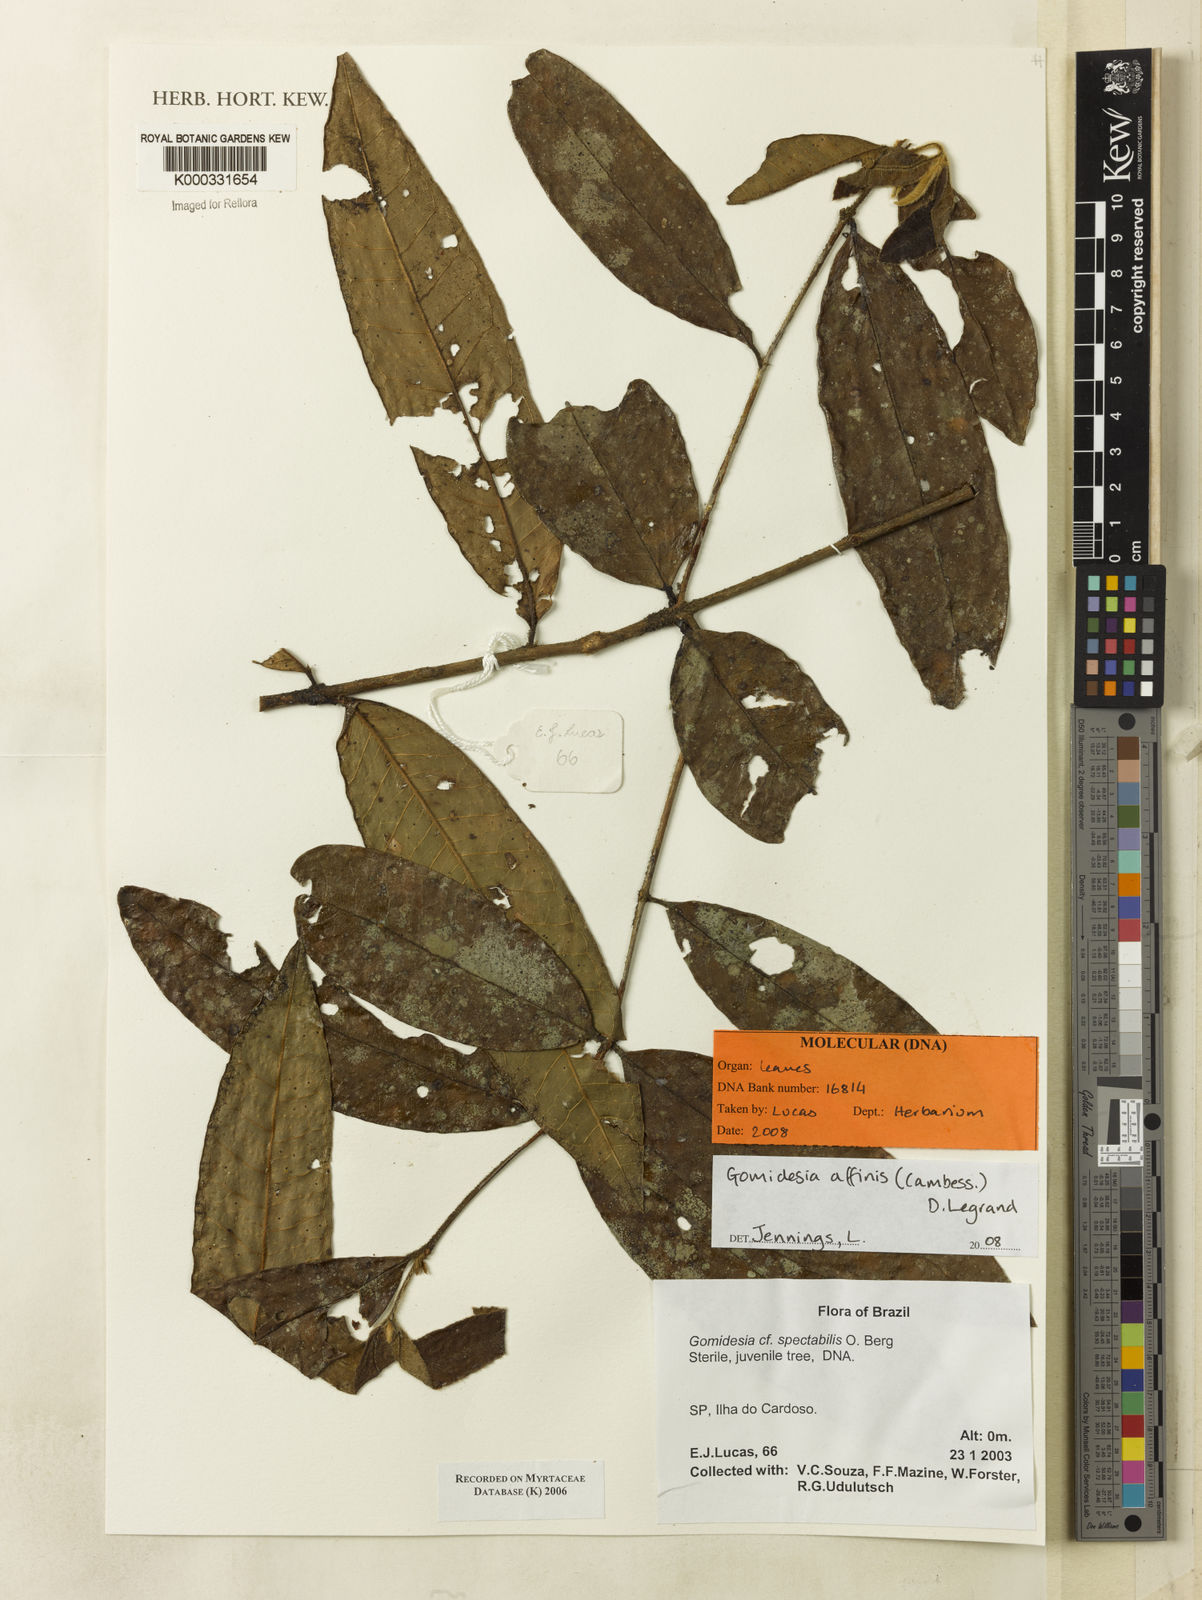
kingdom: Plantae
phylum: Tracheophyta
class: Magnoliopsida
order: Myrtales
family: Myrtaceae
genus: Myrcia
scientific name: Myrcia spectabilis
